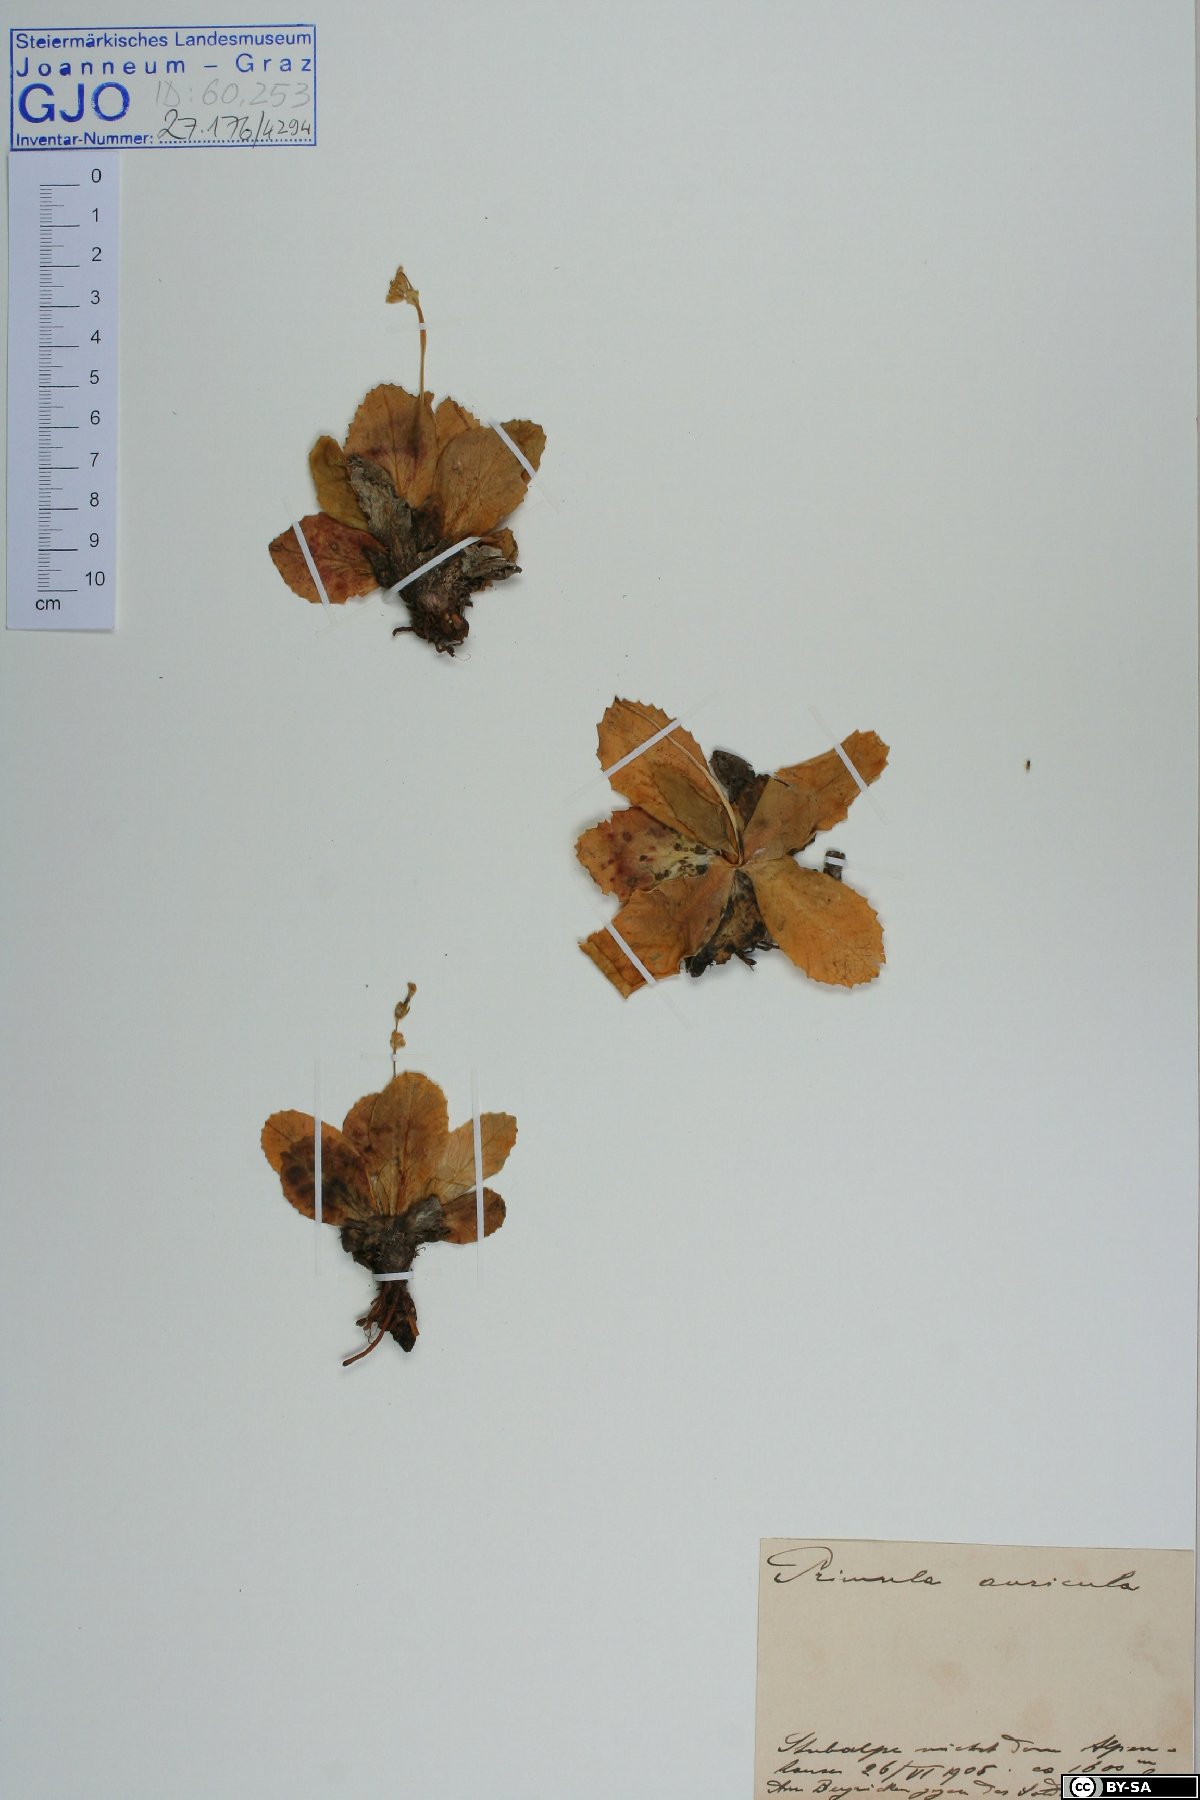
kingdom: Plantae
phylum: Tracheophyta
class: Magnoliopsida
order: Ericales
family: Primulaceae
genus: Primula
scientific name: Primula auricula
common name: Auricula
